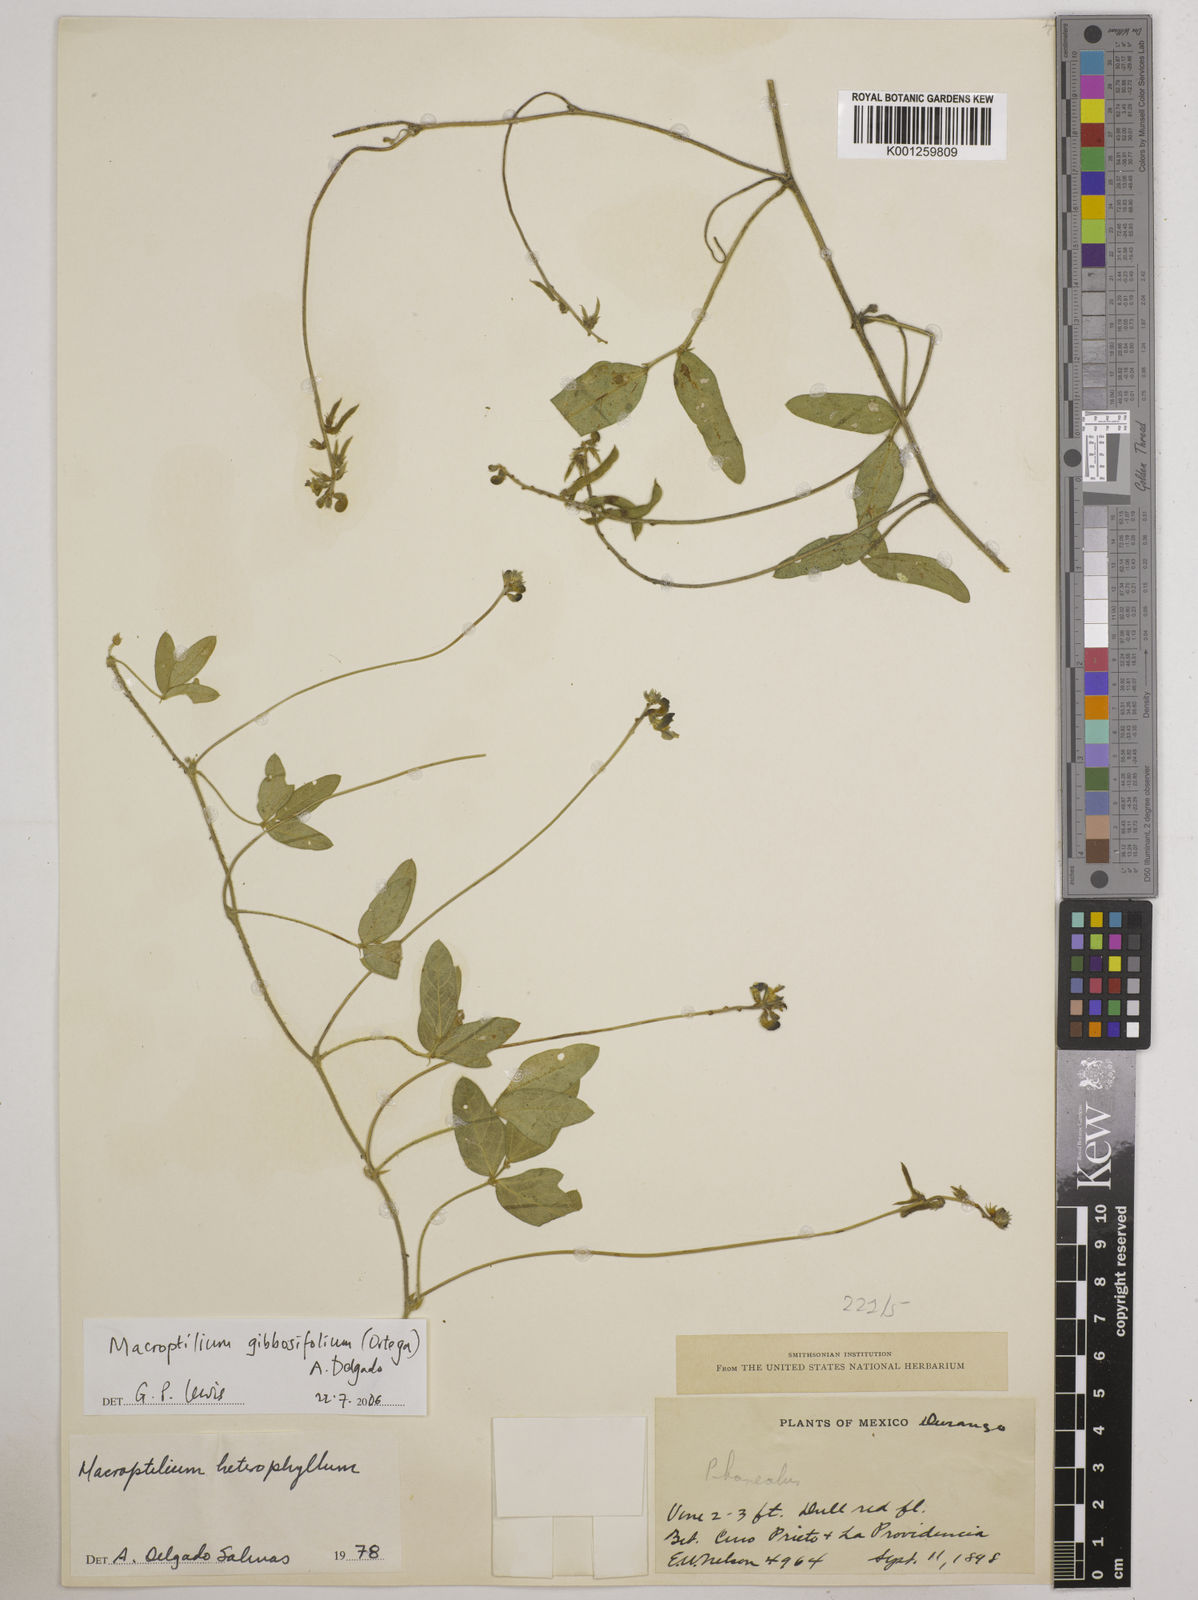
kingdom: Plantae
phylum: Tracheophyta
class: Magnoliopsida
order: Fabales
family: Fabaceae
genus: Macroptilium
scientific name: Macroptilium gibbosifolium
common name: Variableleaf bushbean
